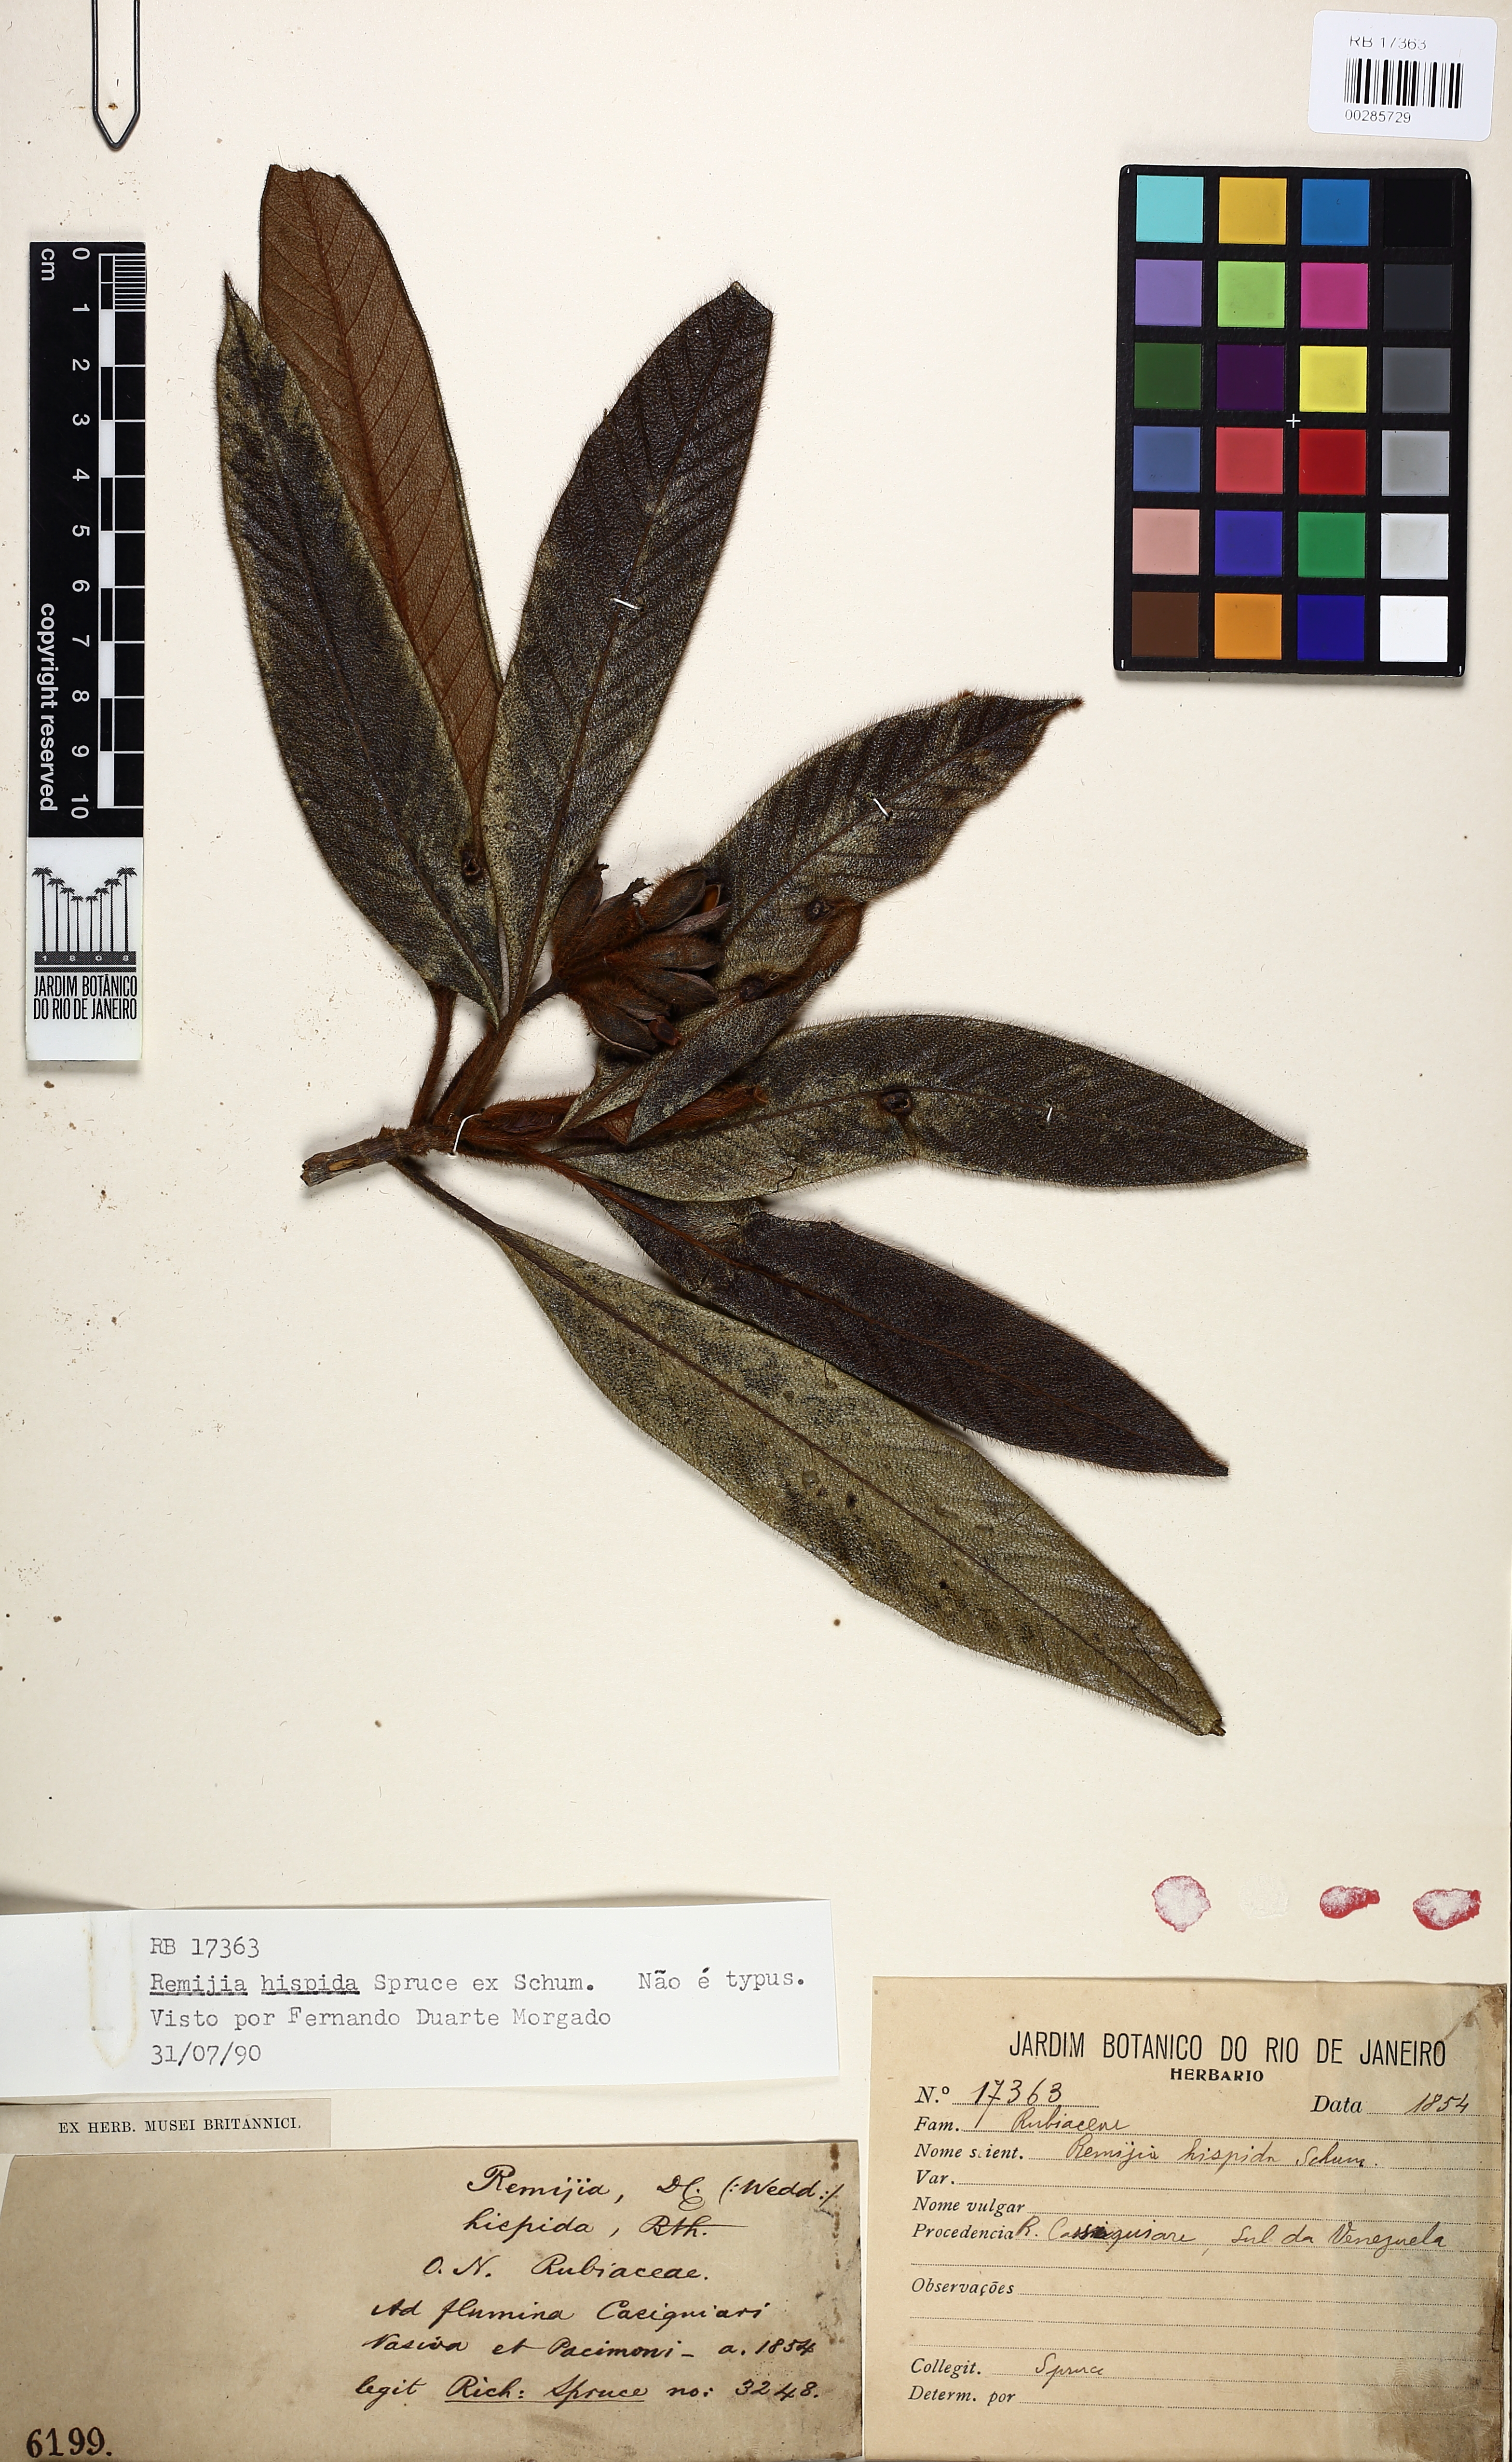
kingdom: Plantae
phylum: Tracheophyta
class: Magnoliopsida
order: Gentianales
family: Rubiaceae
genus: Remijia
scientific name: Remijia hispida
